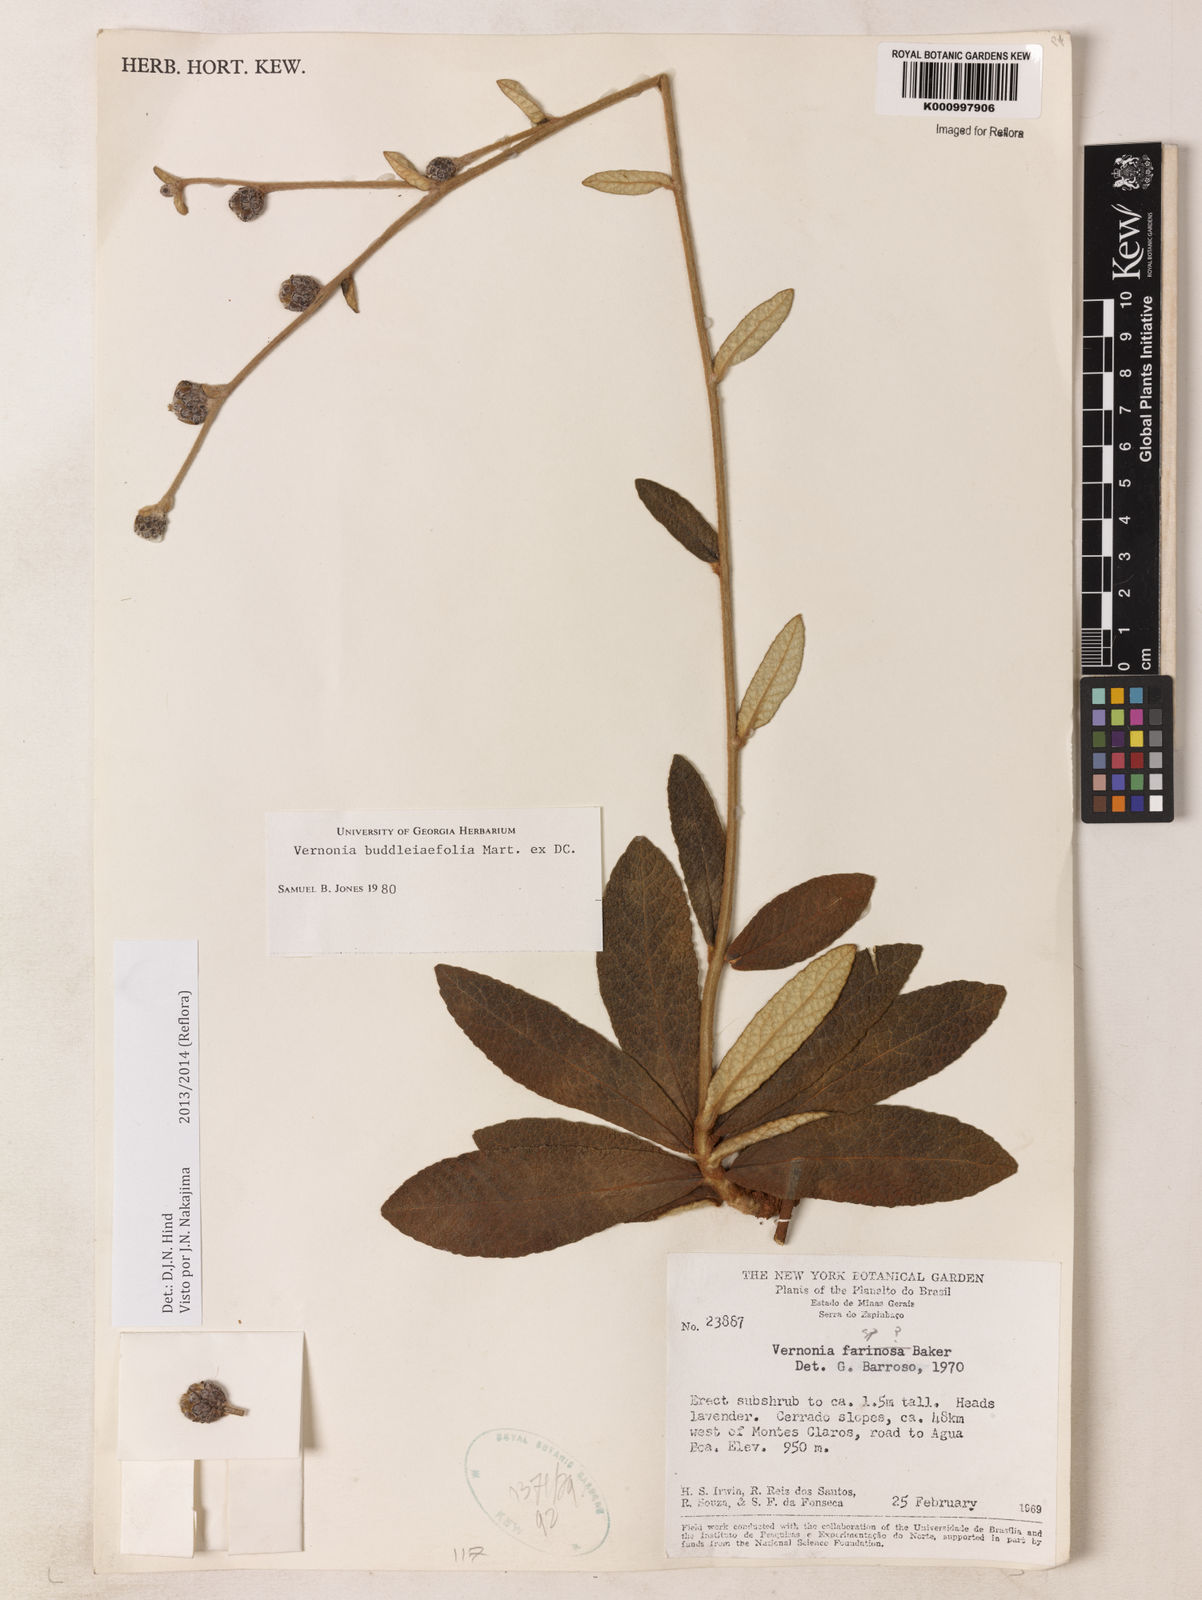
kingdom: Plantae
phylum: Tracheophyta
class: Magnoliopsida
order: Asterales
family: Asteraceae
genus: Lessingianthus
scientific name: Lessingianthus buddlejifolius
